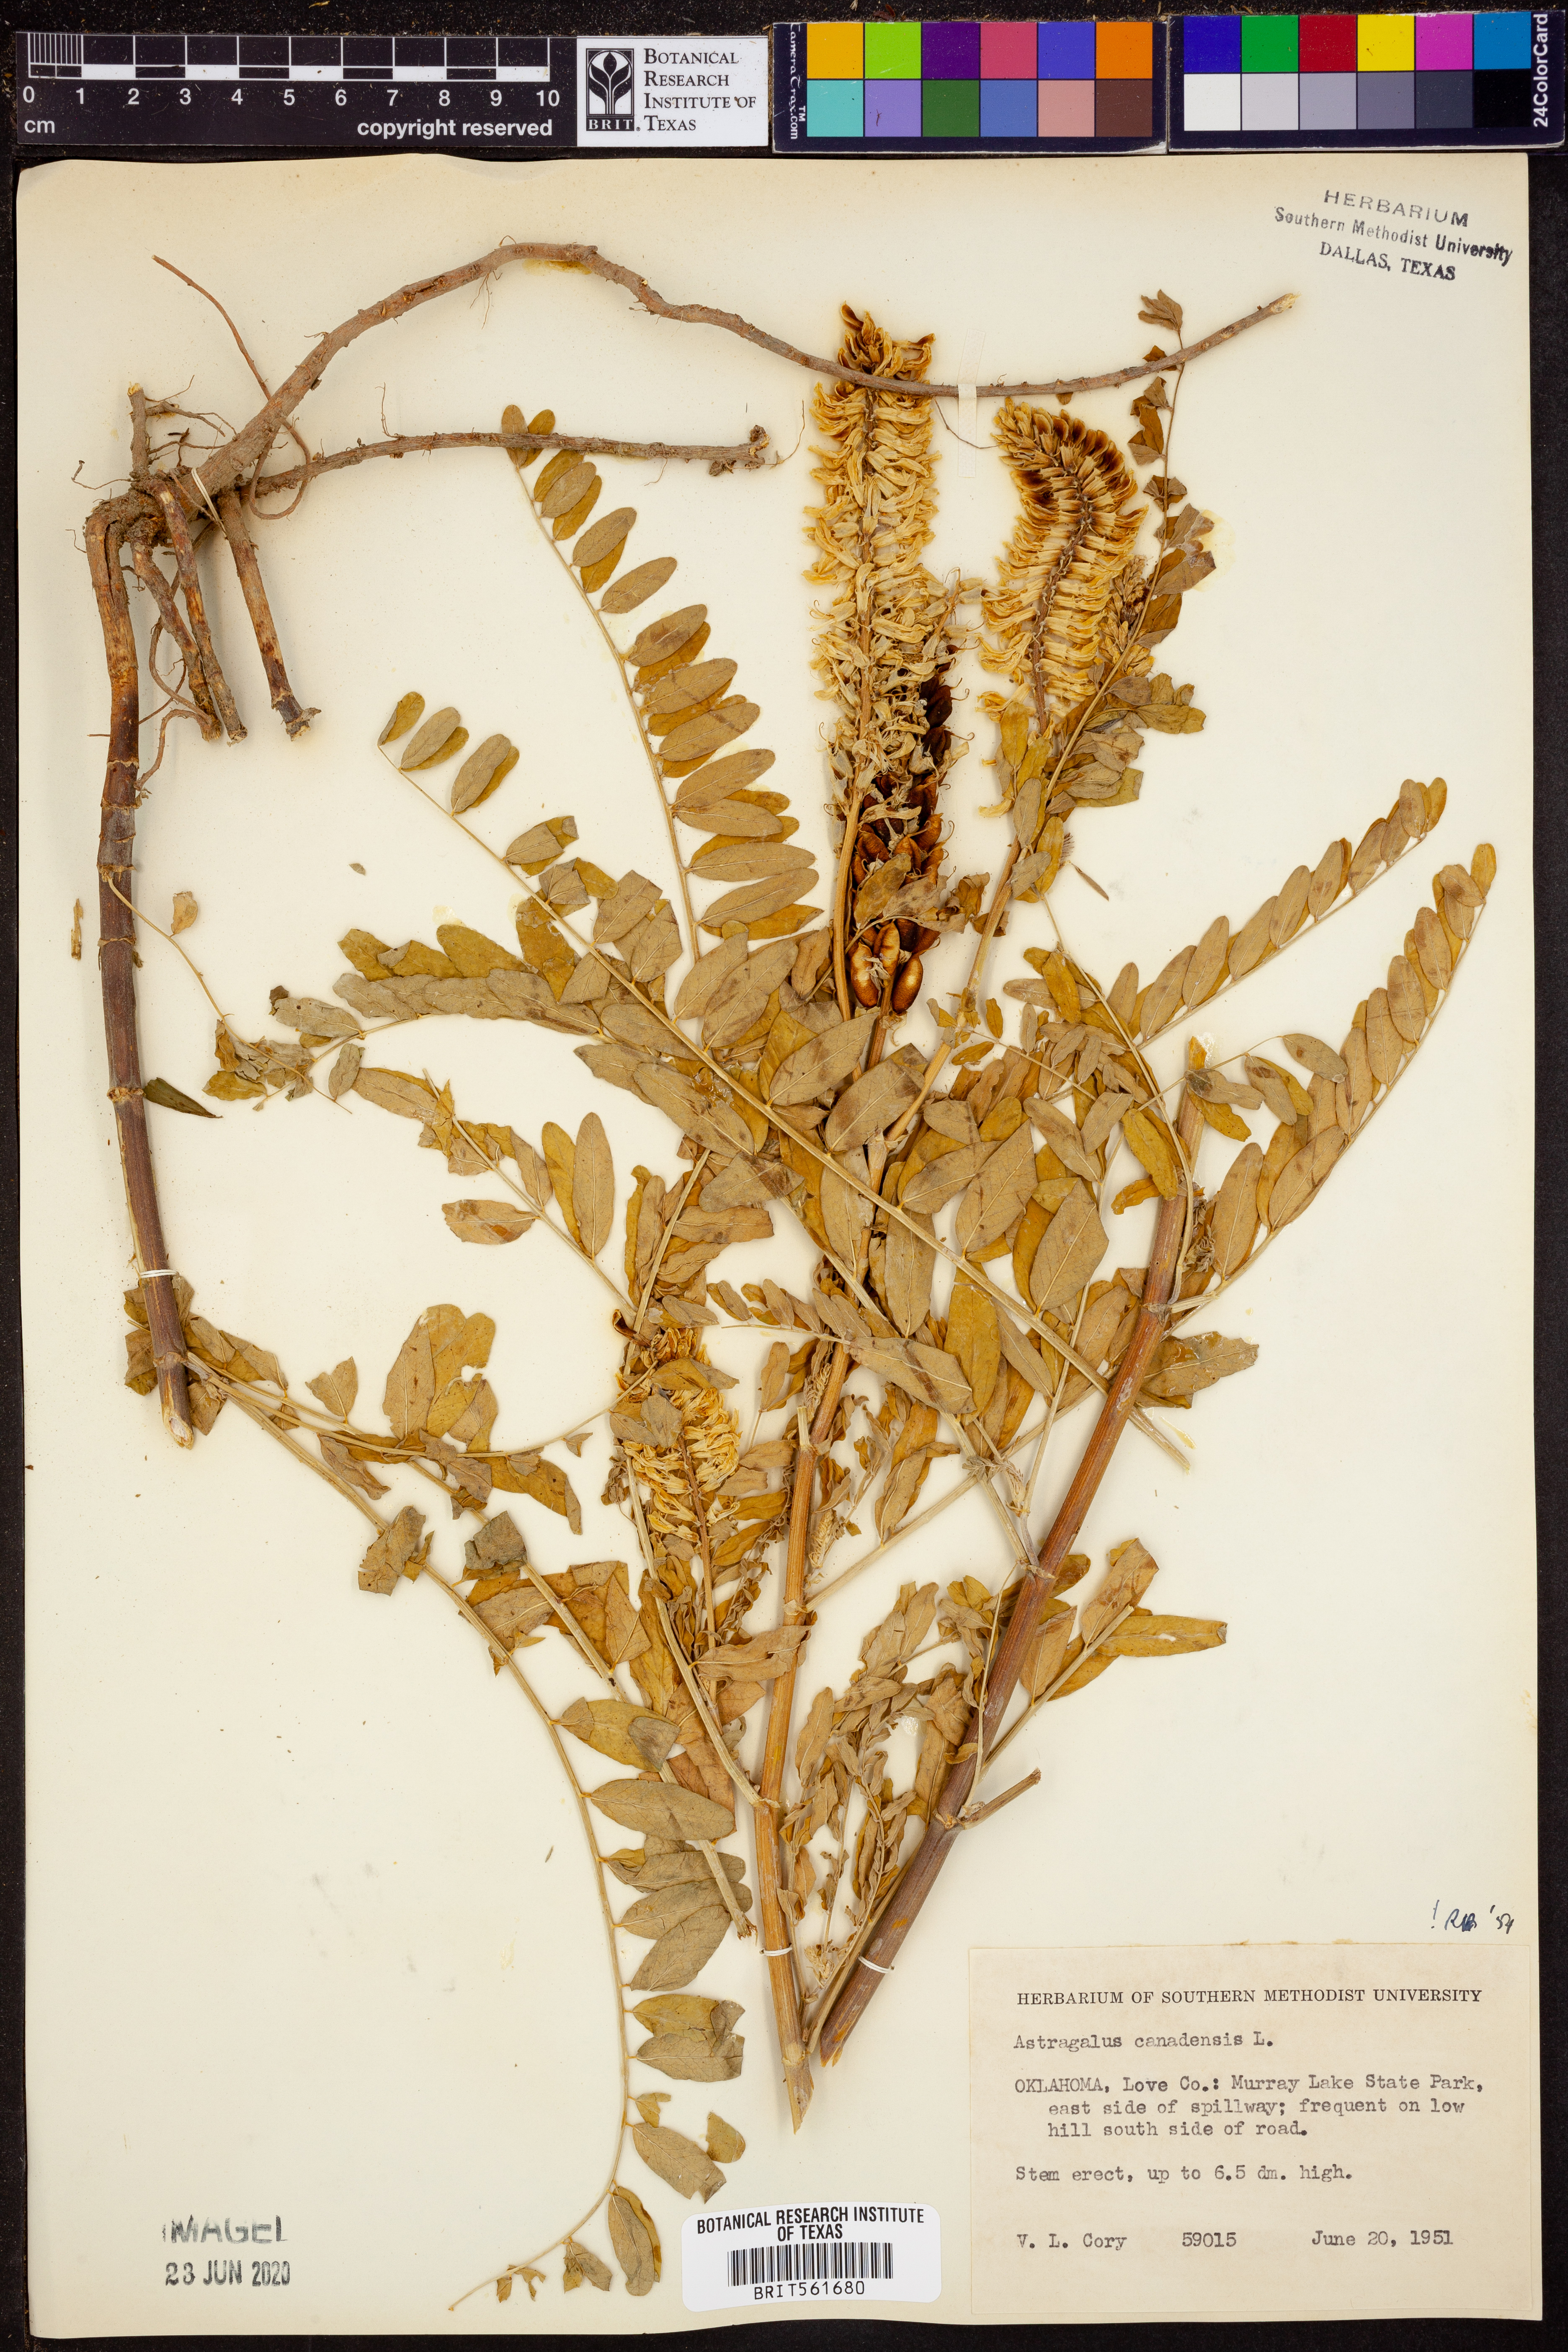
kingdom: Plantae
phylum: Tracheophyta
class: Magnoliopsida
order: Fabales
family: Fabaceae
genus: Astragalus
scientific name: Astragalus canadensis
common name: Canada milk-vetch
